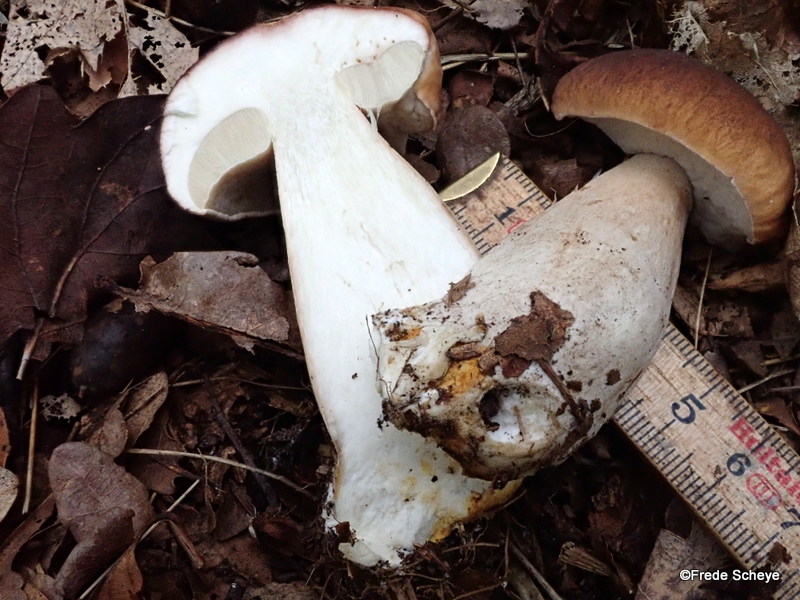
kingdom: Fungi
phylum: Basidiomycota
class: Agaricomycetes
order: Boletales
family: Boletaceae
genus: Boletus
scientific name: Boletus edulis
